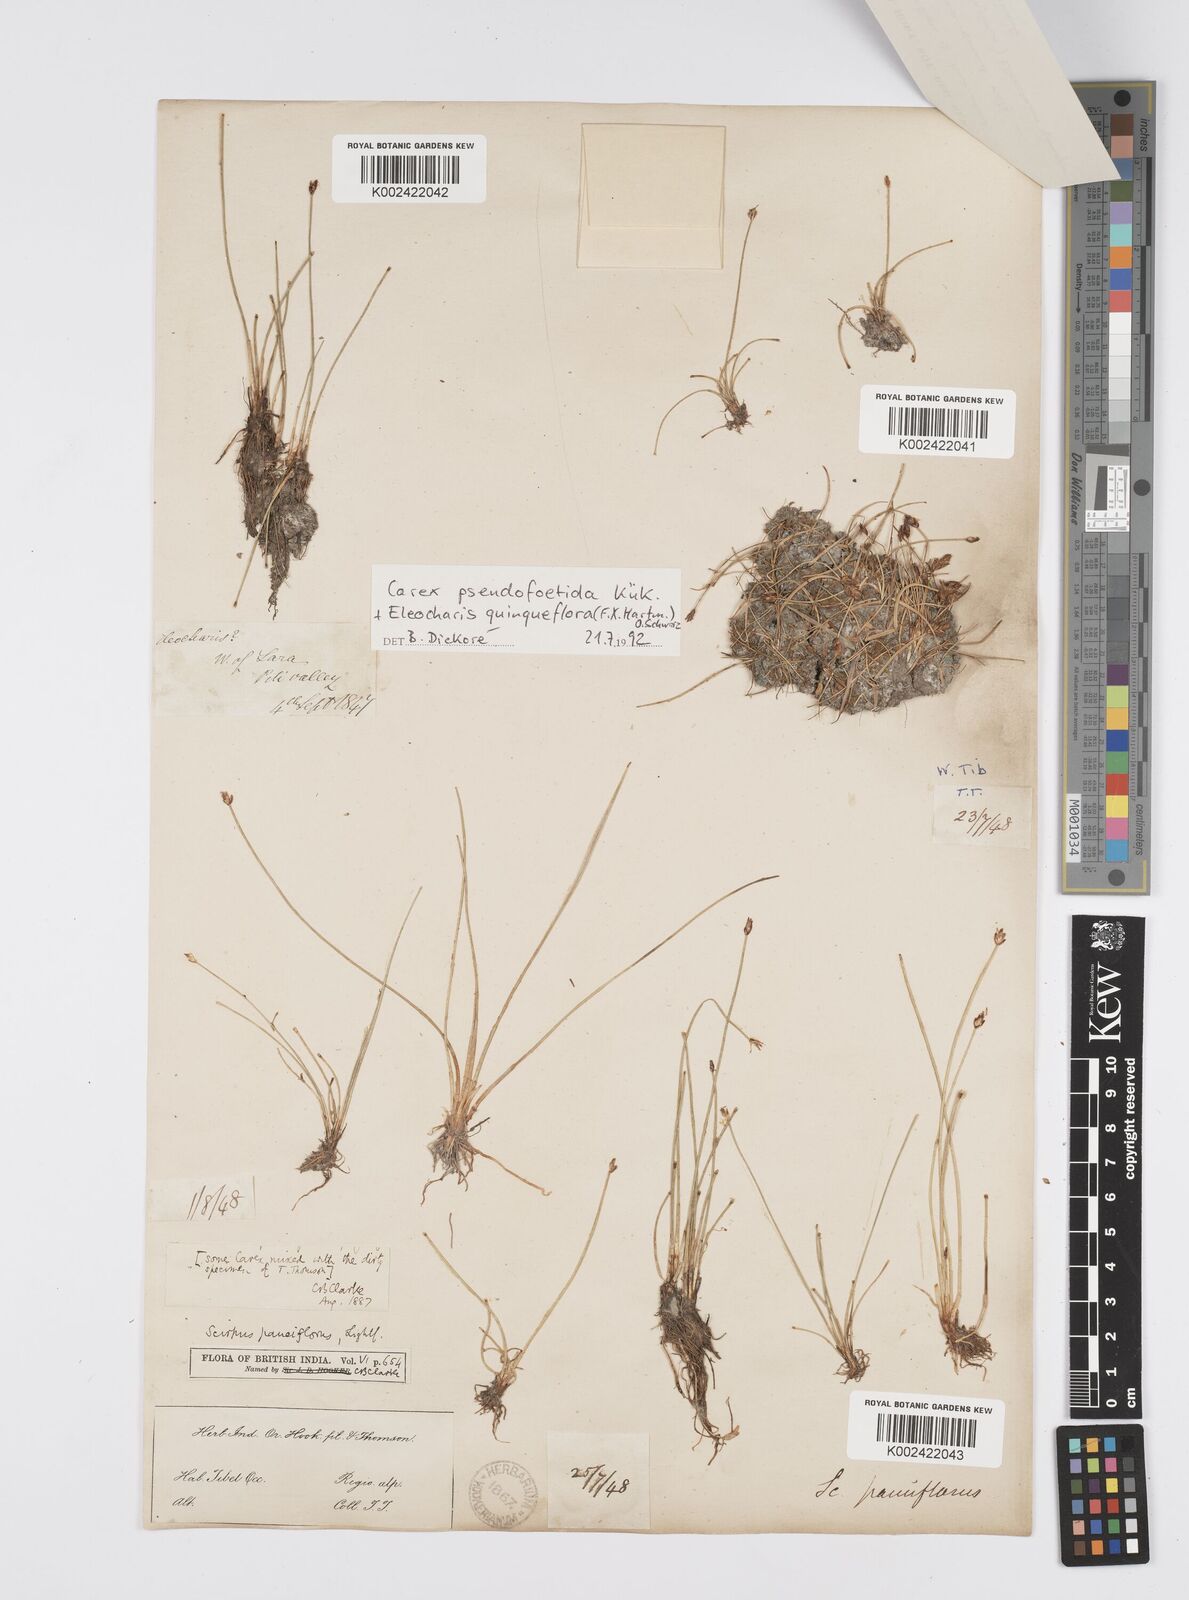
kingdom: Plantae
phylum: Tracheophyta
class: Liliopsida
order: Poales
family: Cyperaceae
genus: Eleocharis
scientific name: Eleocharis quinqueflora
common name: Few-flowered spike-rush
